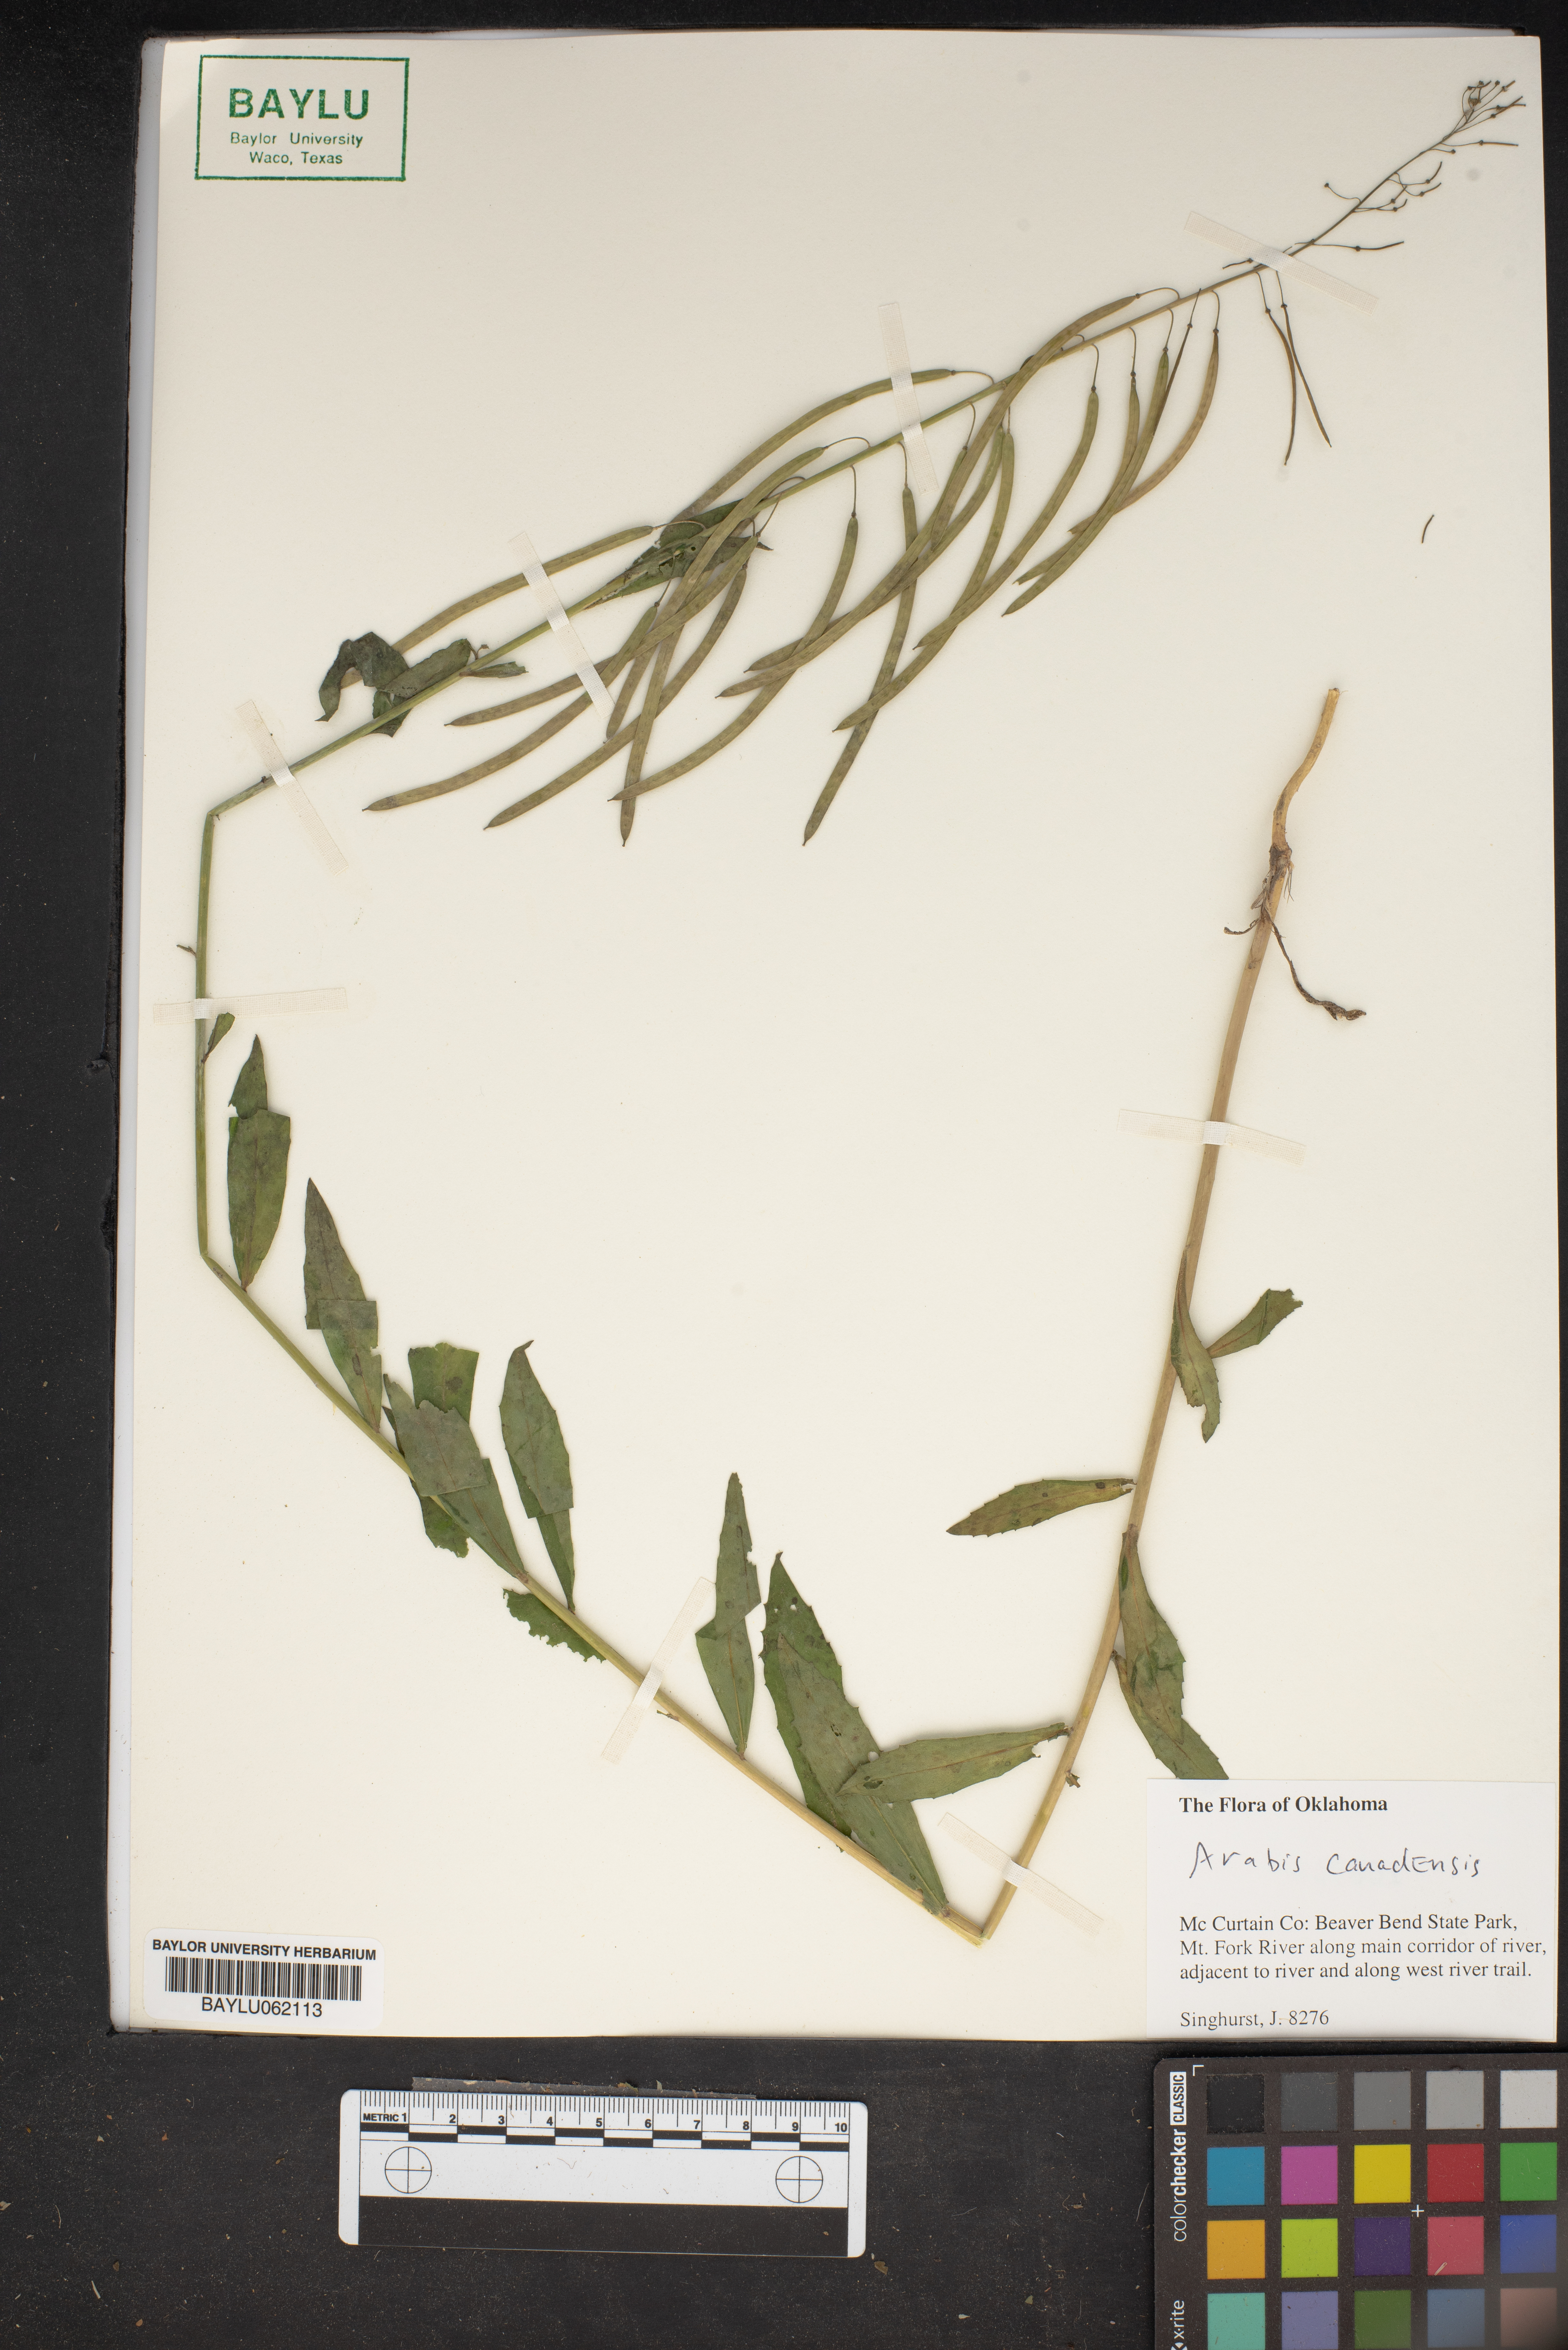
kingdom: Plantae
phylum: Tracheophyta
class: Magnoliopsida
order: Brassicales
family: Brassicaceae
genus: Borodinia
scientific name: Borodinia canadensis
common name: Sicklepod
